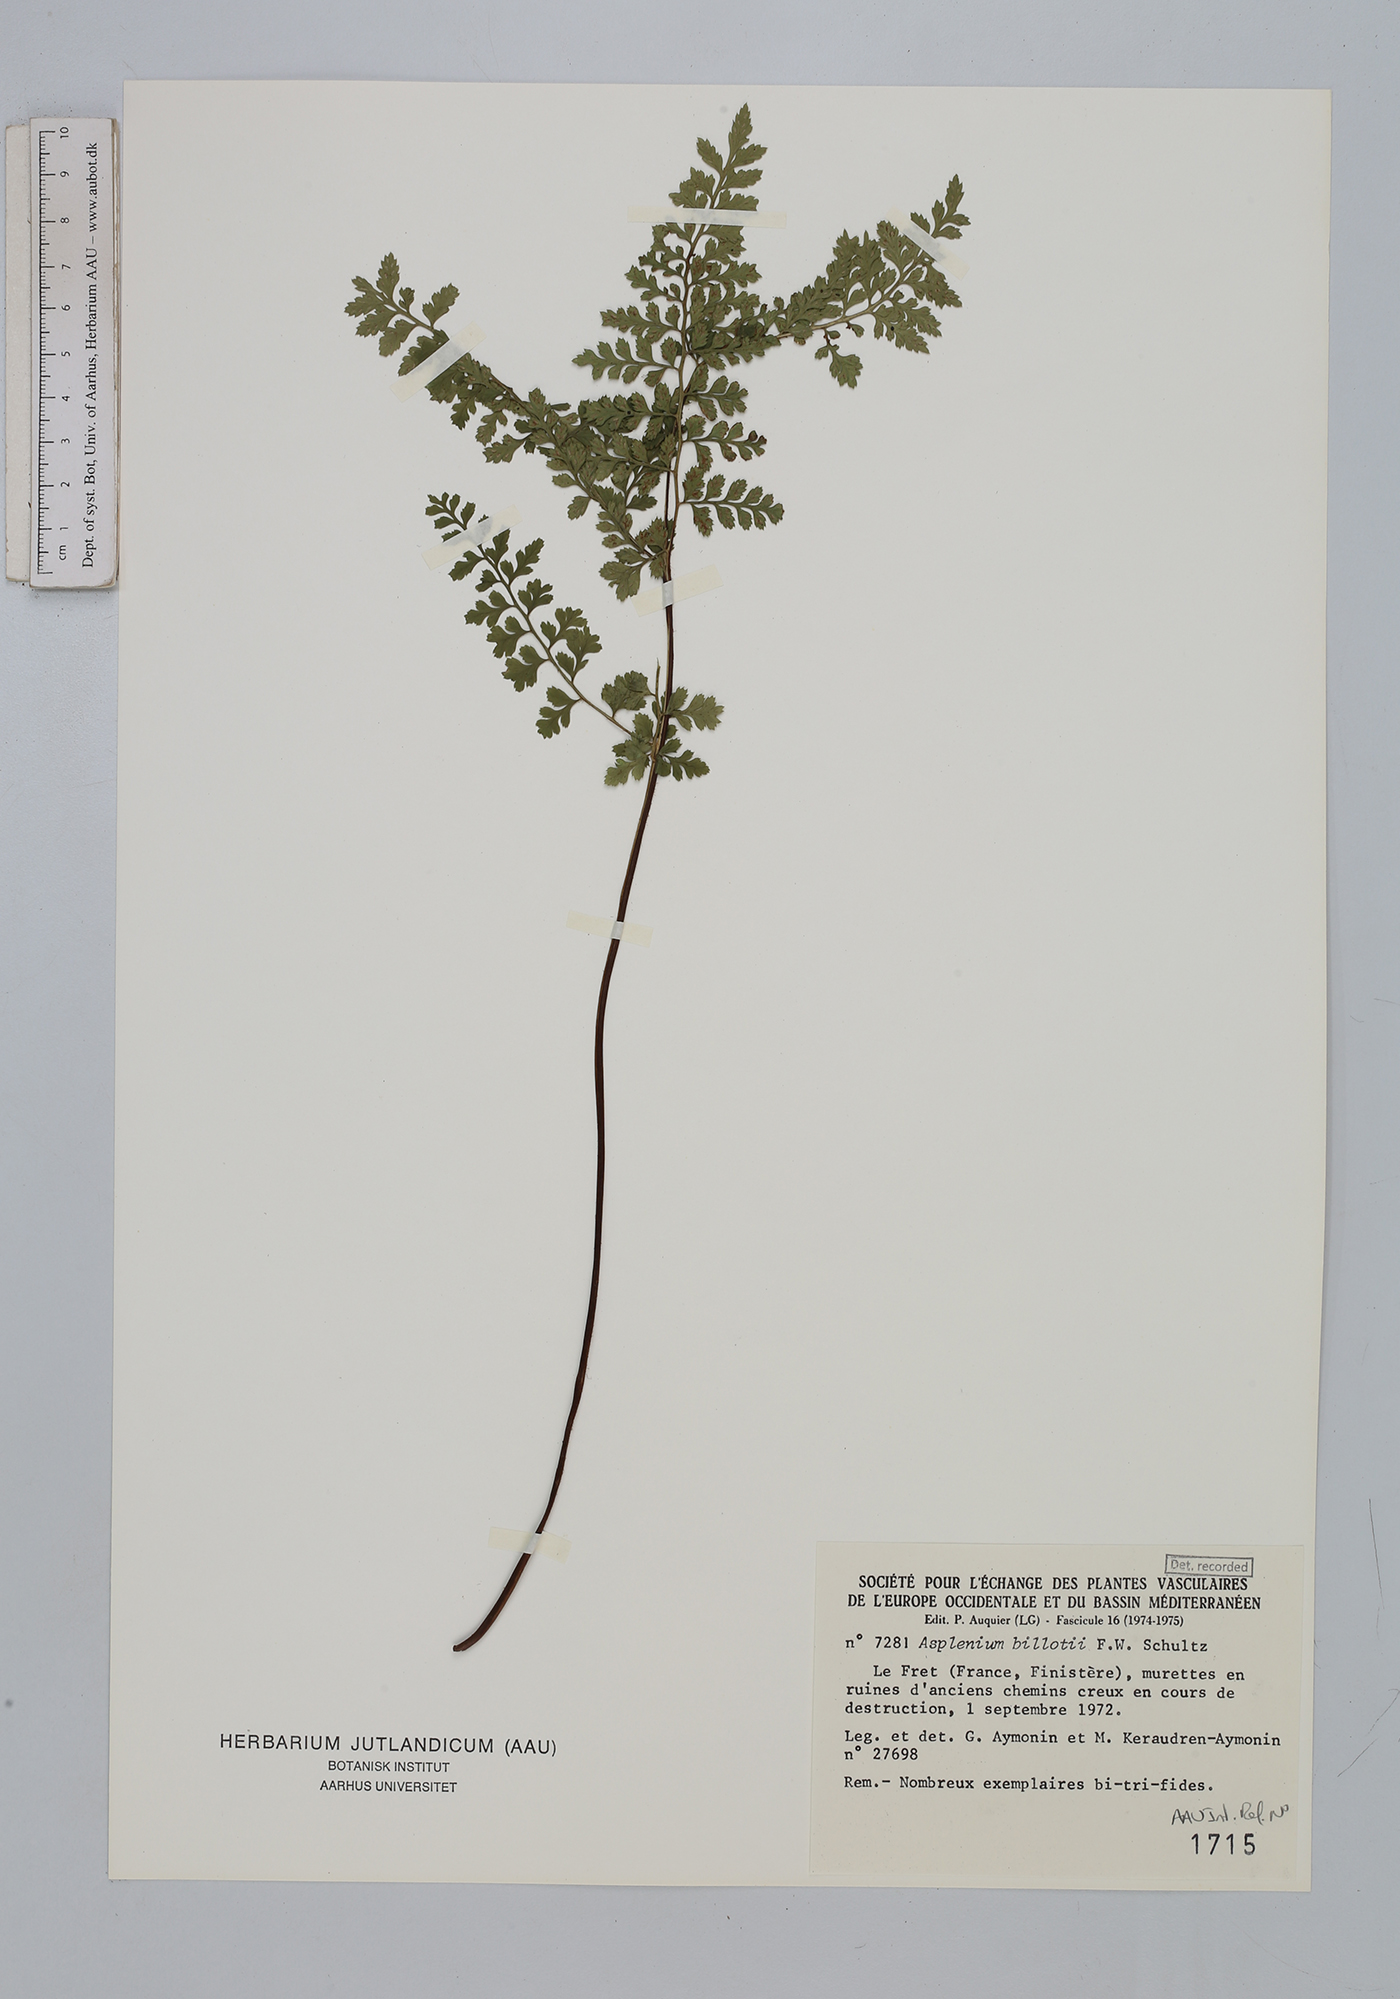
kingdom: Plantae
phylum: Tracheophyta
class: Polypodiopsida
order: Polypodiales
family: Aspleniaceae
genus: Asplenium
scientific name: Asplenium obovatum
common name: Lanceolate spleenwort
